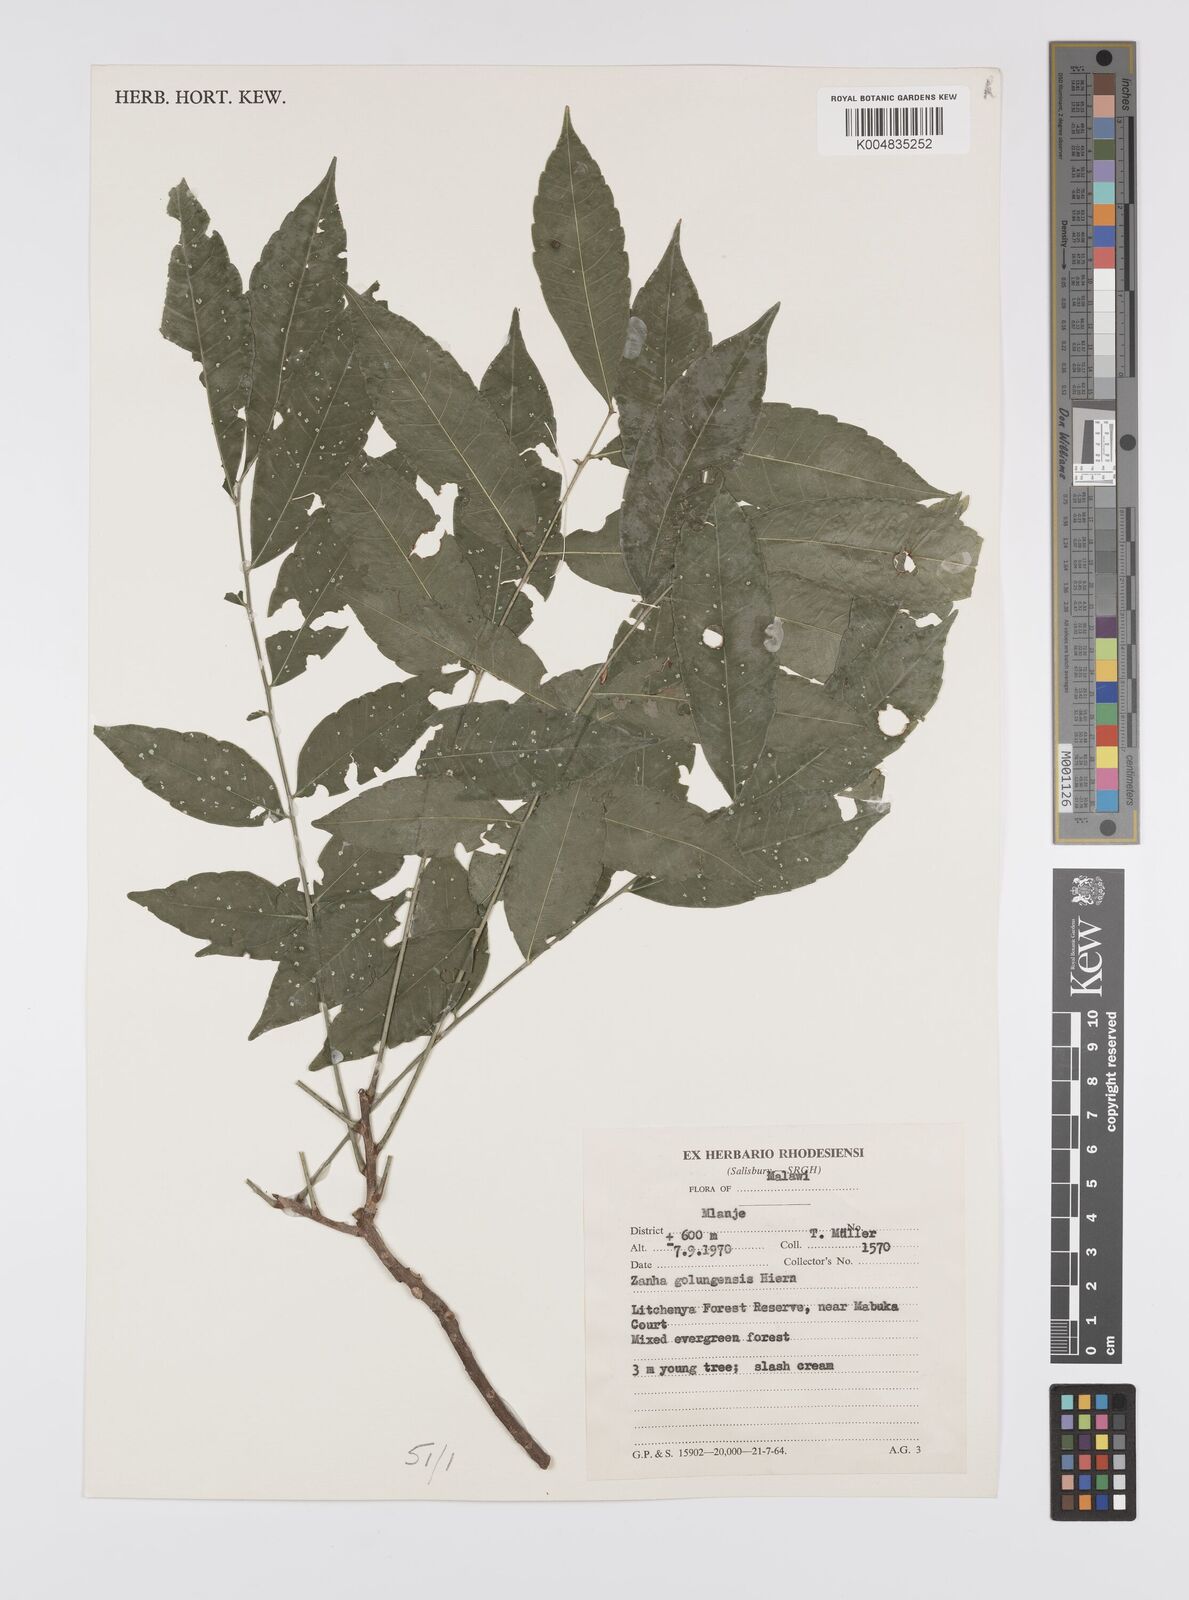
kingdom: Plantae
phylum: Tracheophyta
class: Magnoliopsida
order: Sapindales
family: Sapindaceae
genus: Zanha
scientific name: Zanha golungensis
